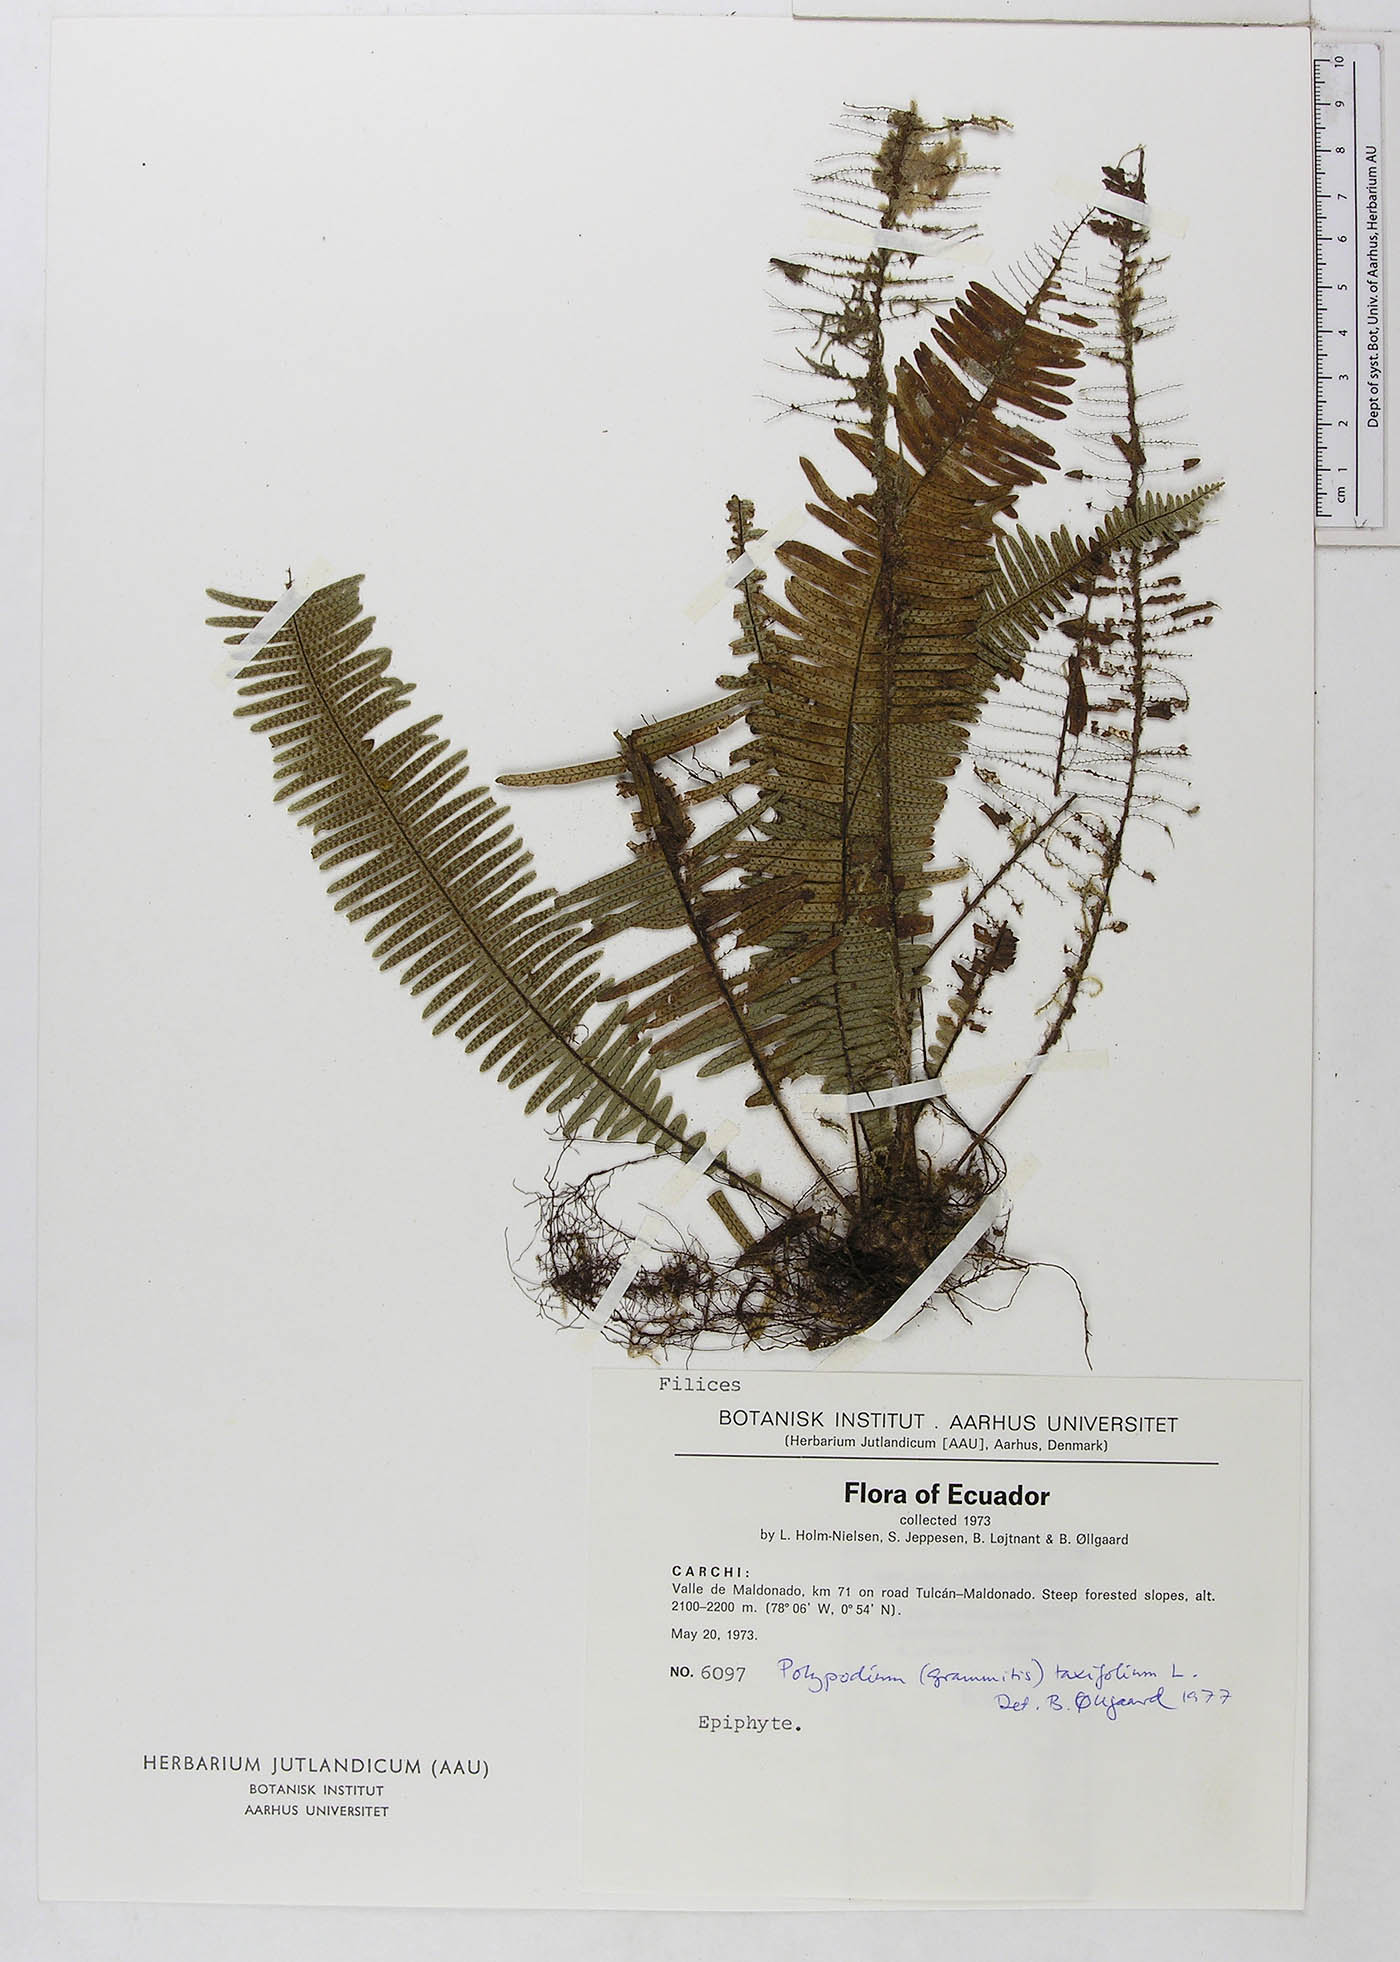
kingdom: Plantae
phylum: Tracheophyta
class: Polypodiopsida
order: Polypodiales
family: Polypodiaceae
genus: Mycopteris
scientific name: Mycopteris taxifolia
